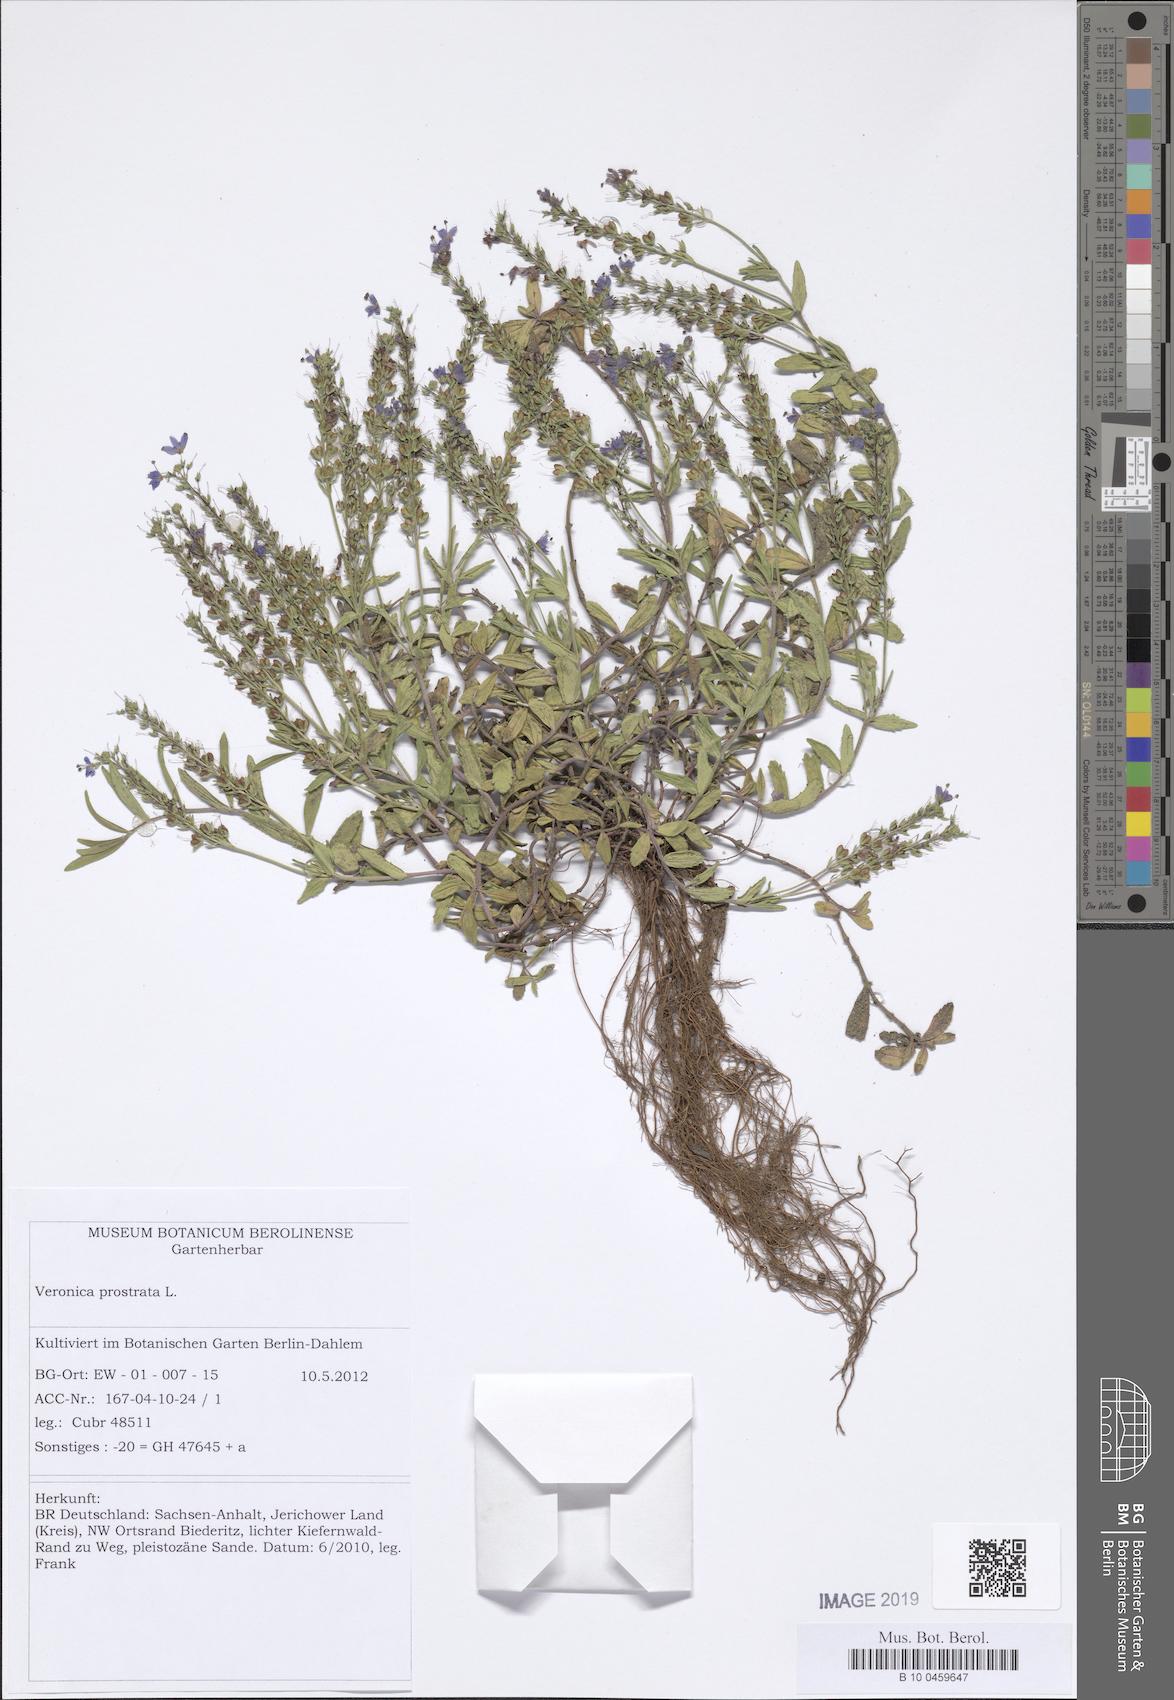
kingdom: Plantae
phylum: Tracheophyta
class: Magnoliopsida
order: Lamiales
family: Plantaginaceae
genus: Veronica
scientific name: Veronica prostrata
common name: Prostrate speedwell
